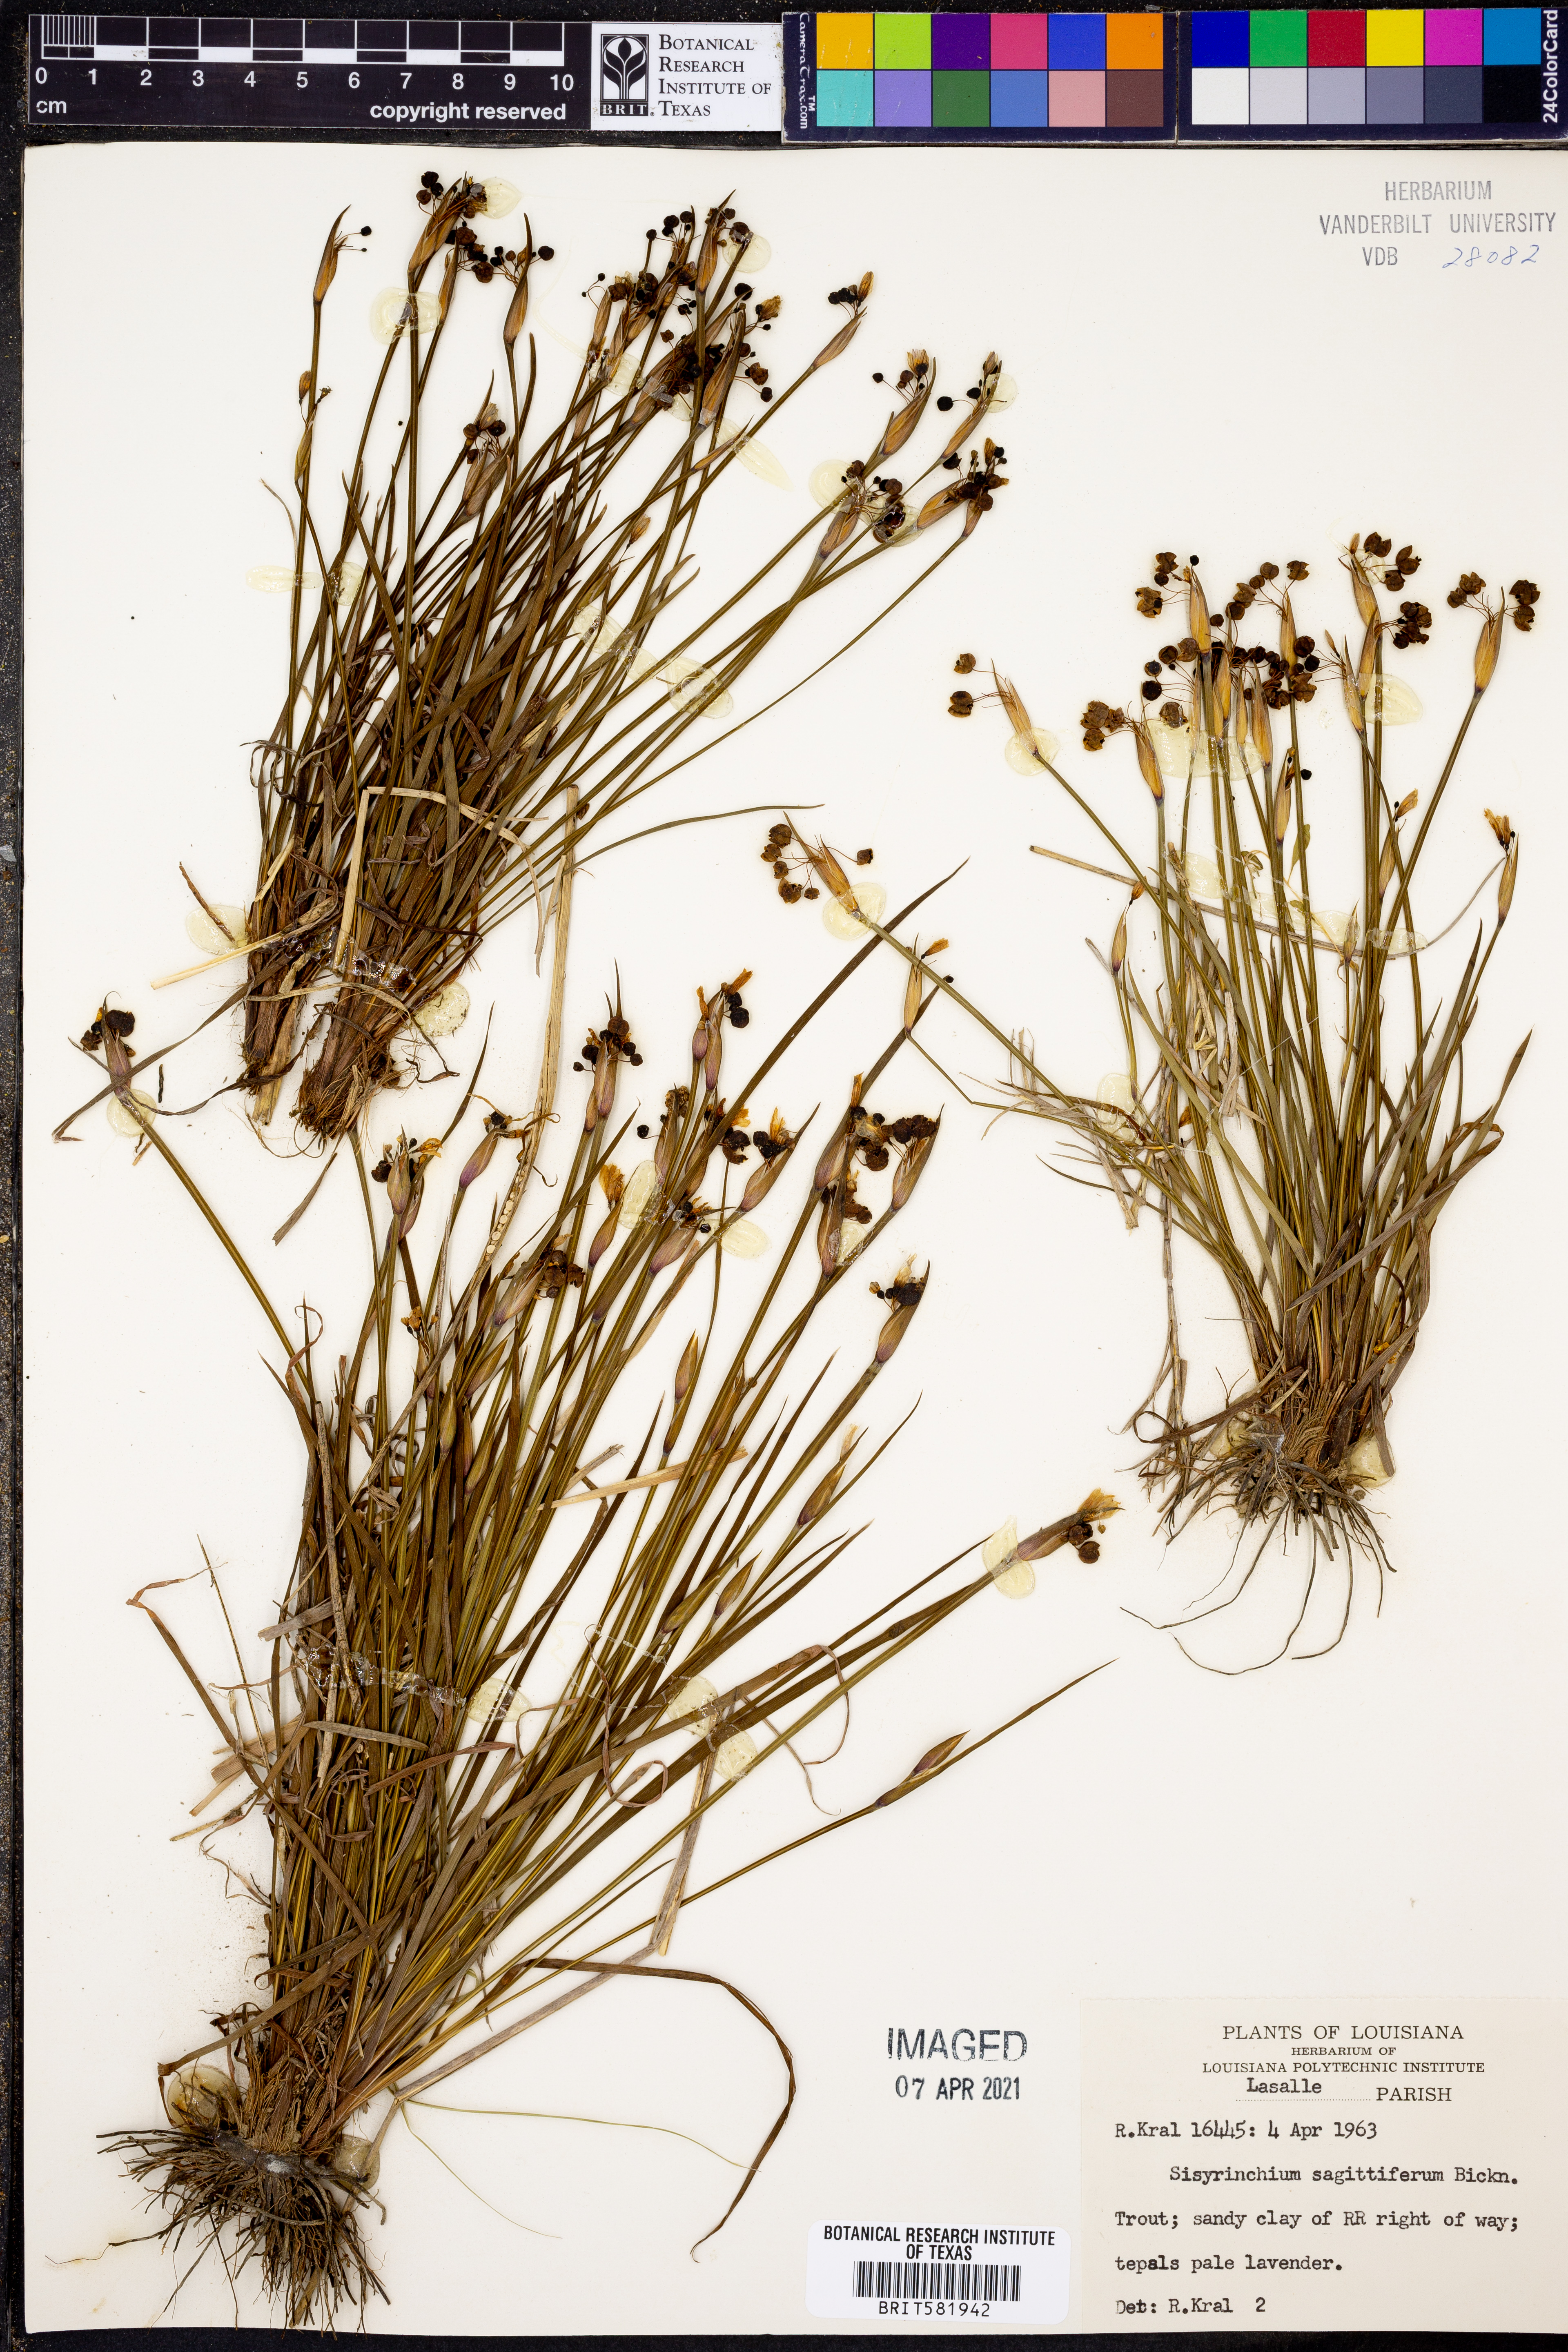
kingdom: Plantae
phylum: Tracheophyta
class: Liliopsida
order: Asparagales
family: Iridaceae
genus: Sisyrinchium
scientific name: Sisyrinchium sagittiferum
